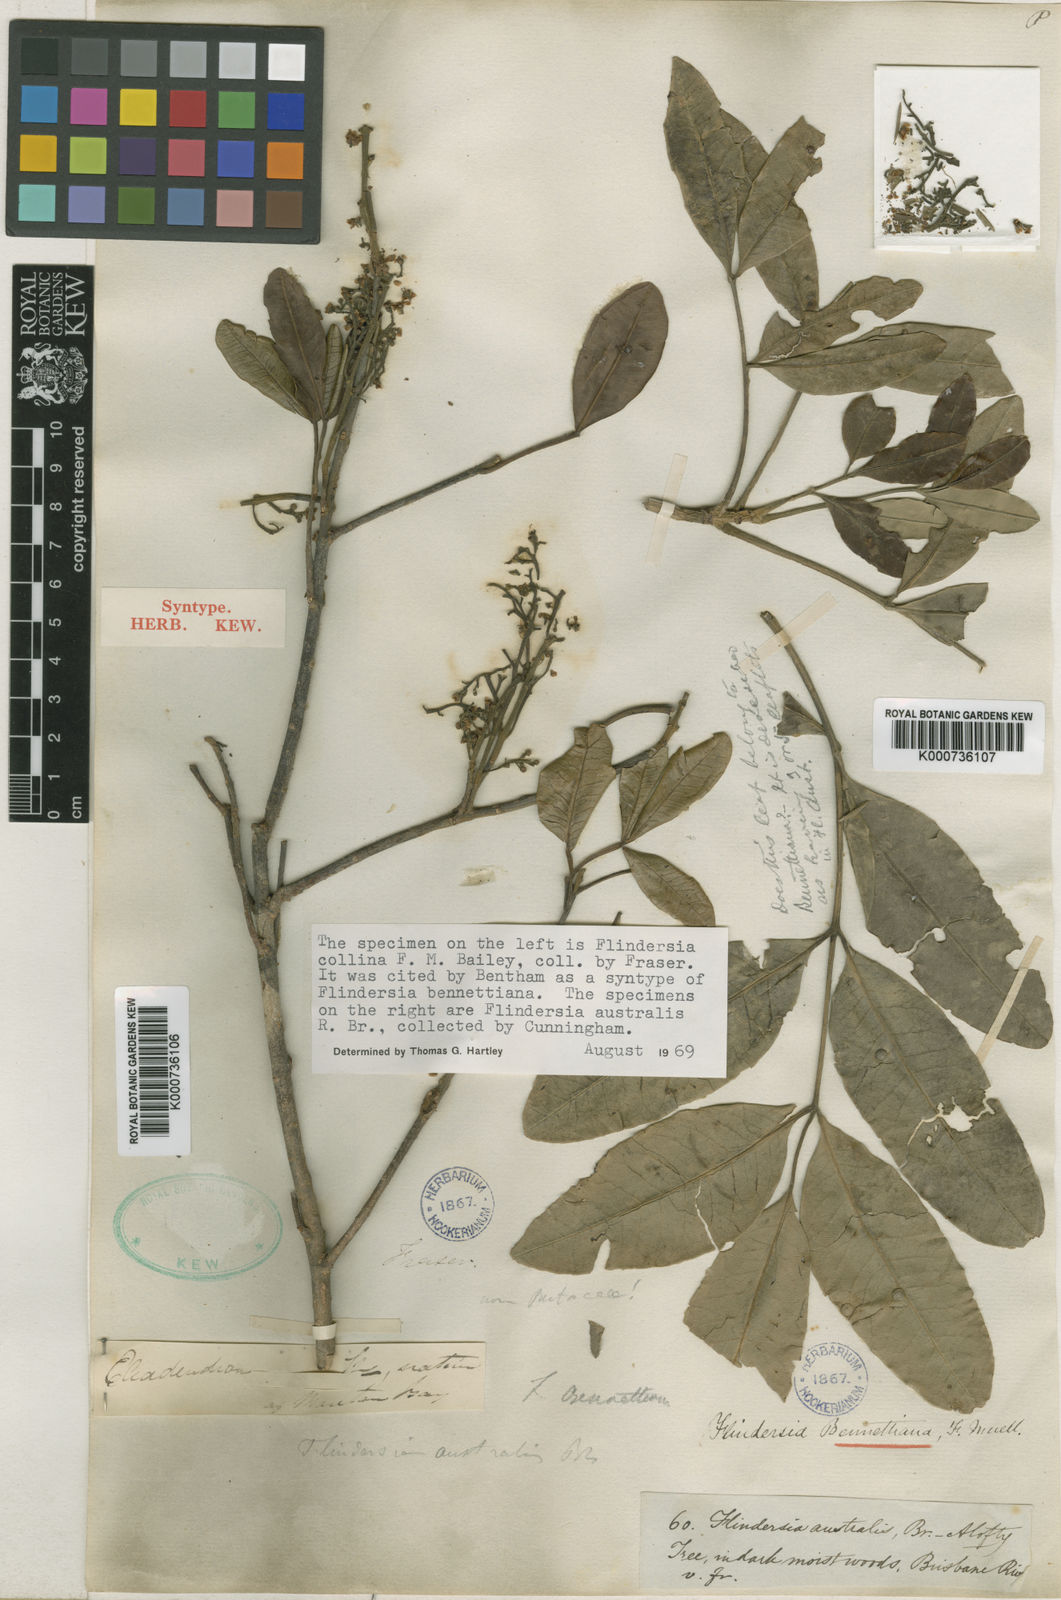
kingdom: Plantae
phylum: Tracheophyta
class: Magnoliopsida
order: Sapindales
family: Rutaceae
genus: Flindersia
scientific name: Flindersia collina
